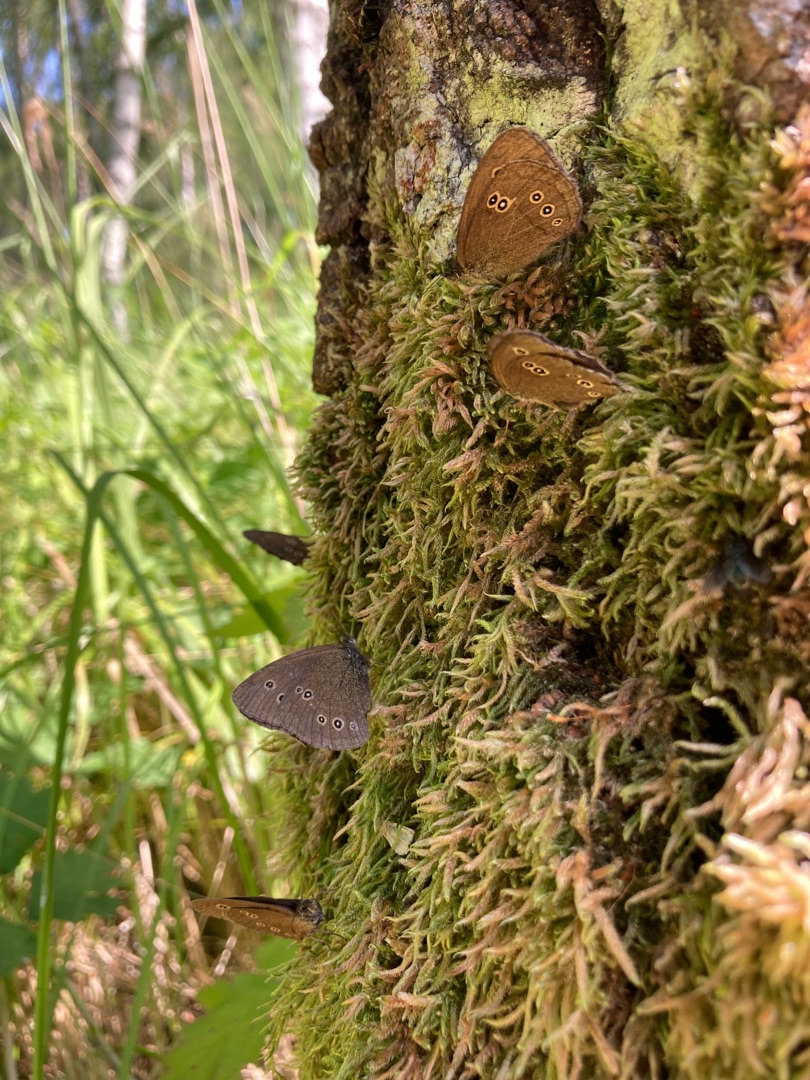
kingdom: Animalia
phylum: Arthropoda
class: Insecta
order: Lepidoptera
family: Nymphalidae
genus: Aphantopus
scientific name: Aphantopus hyperantus
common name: Engrandøje
